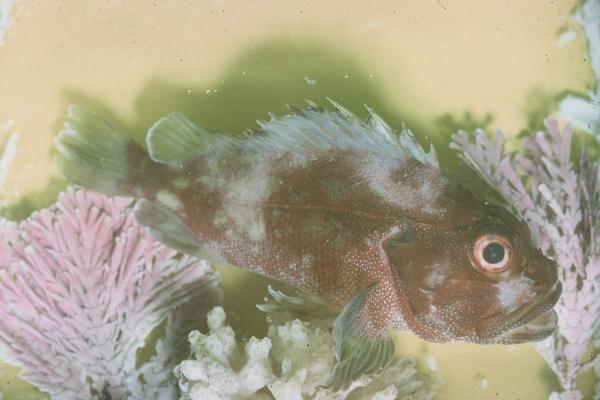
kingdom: Animalia
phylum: Chordata
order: Scorpaeniformes
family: Scorpaenidae
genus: Sebastapistes
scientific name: Sebastapistes cyanostigma
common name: Yellowspotted scorpionfish
